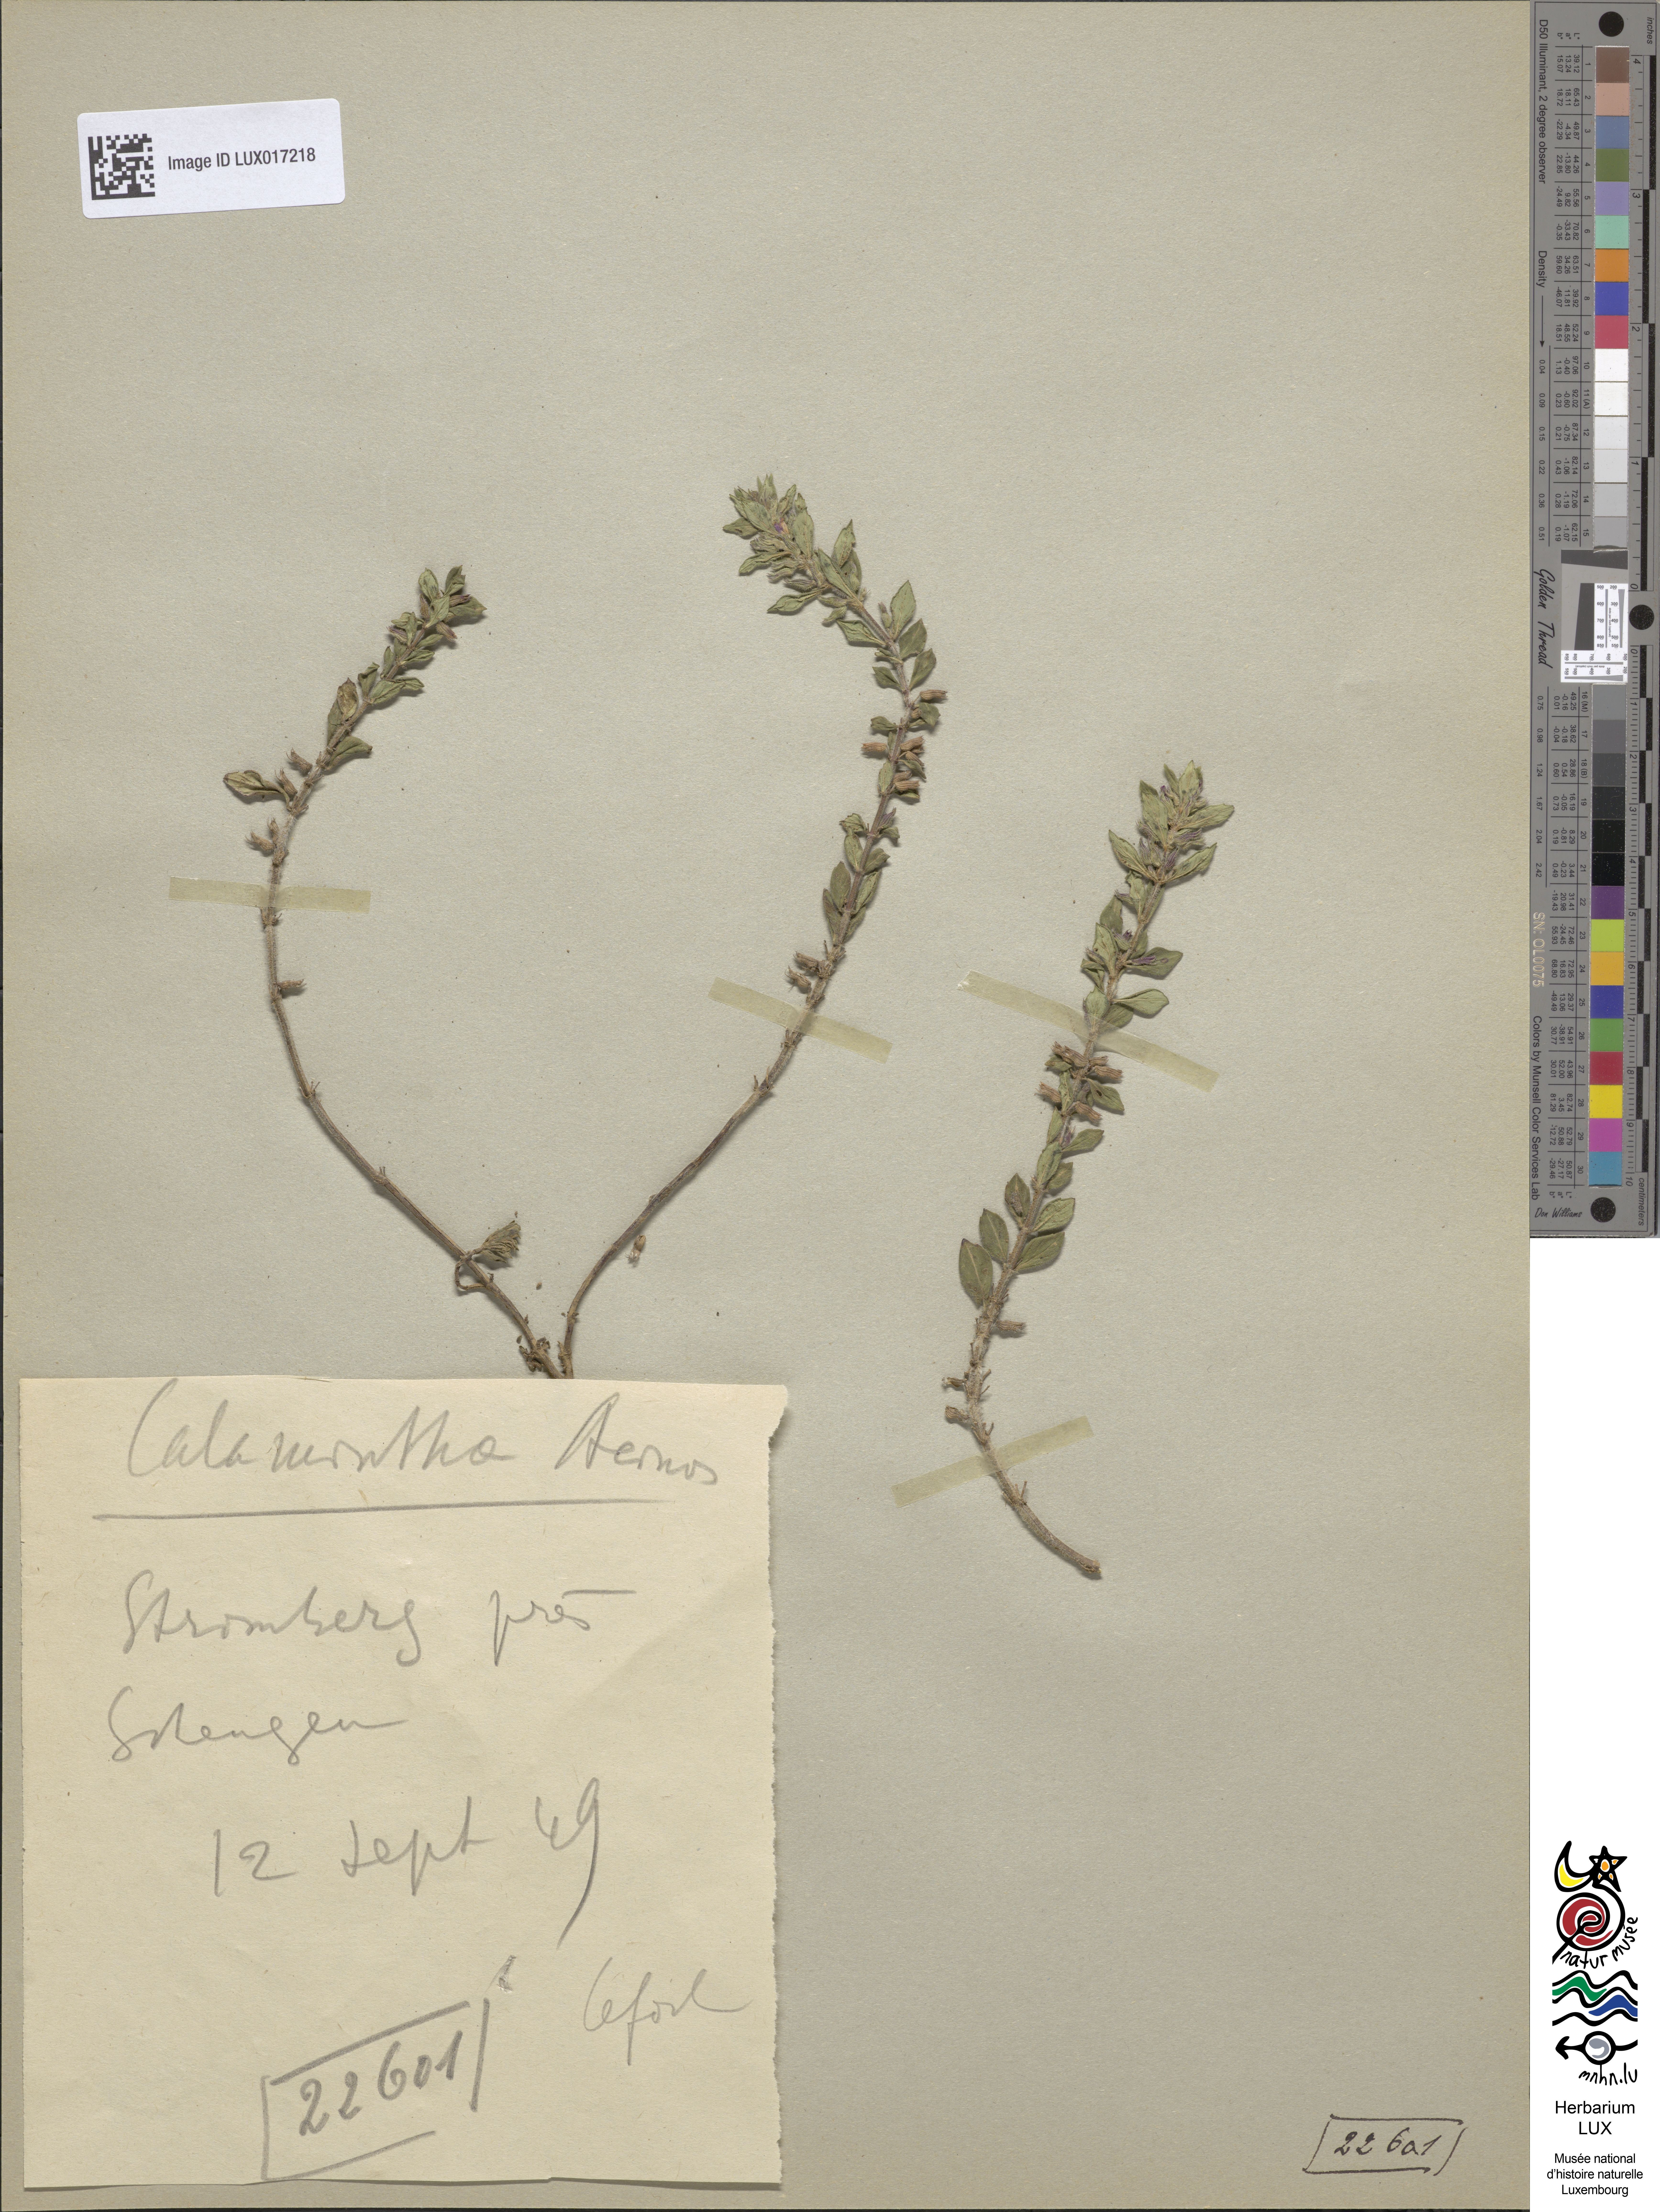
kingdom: Plantae
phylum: Tracheophyta
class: Magnoliopsida
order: Lamiales
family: Lamiaceae
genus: Clinopodium
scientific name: Clinopodium acinos
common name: Basil thyme
